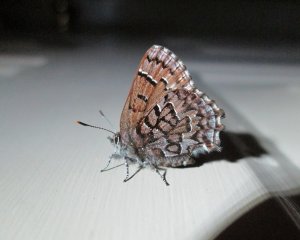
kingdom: Animalia
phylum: Arthropoda
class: Insecta
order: Lepidoptera
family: Lycaenidae
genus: Incisalia
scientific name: Incisalia niphon
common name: Eastern Pine Elfin
